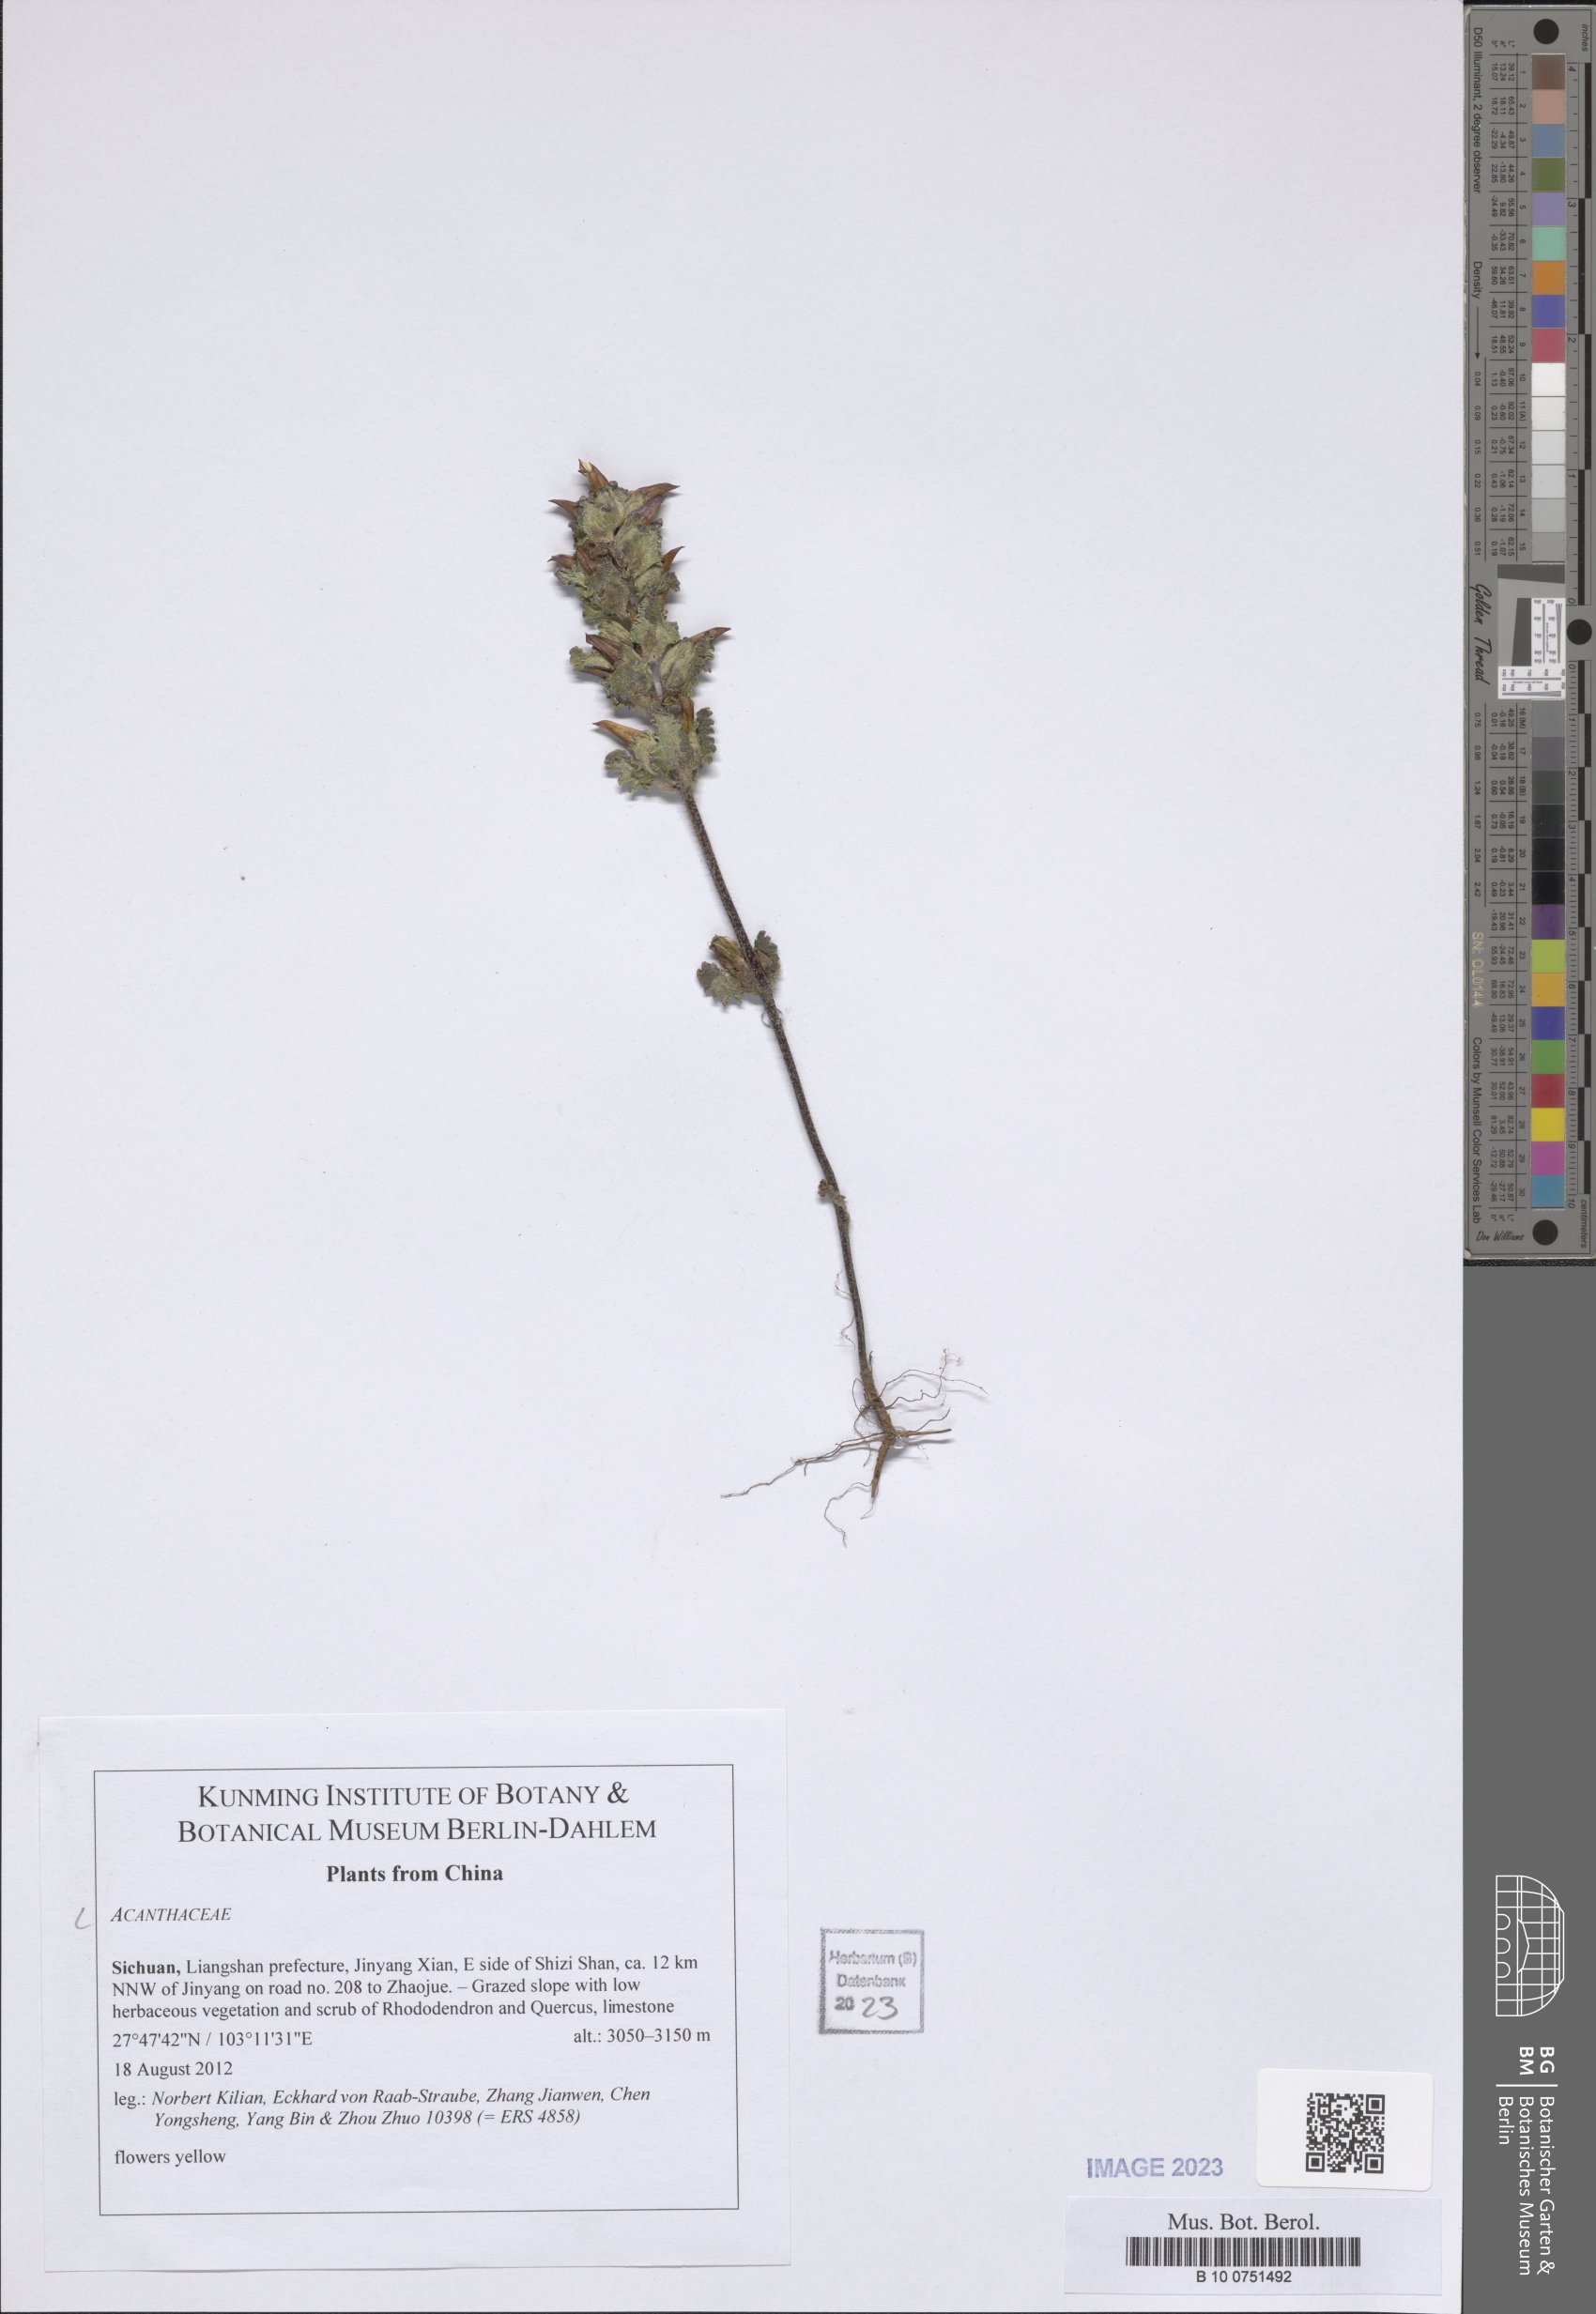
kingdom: Plantae
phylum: Tracheophyta
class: Magnoliopsida
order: Lamiales
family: Acanthaceae
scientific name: Acanthaceae
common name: Acanthaceae
